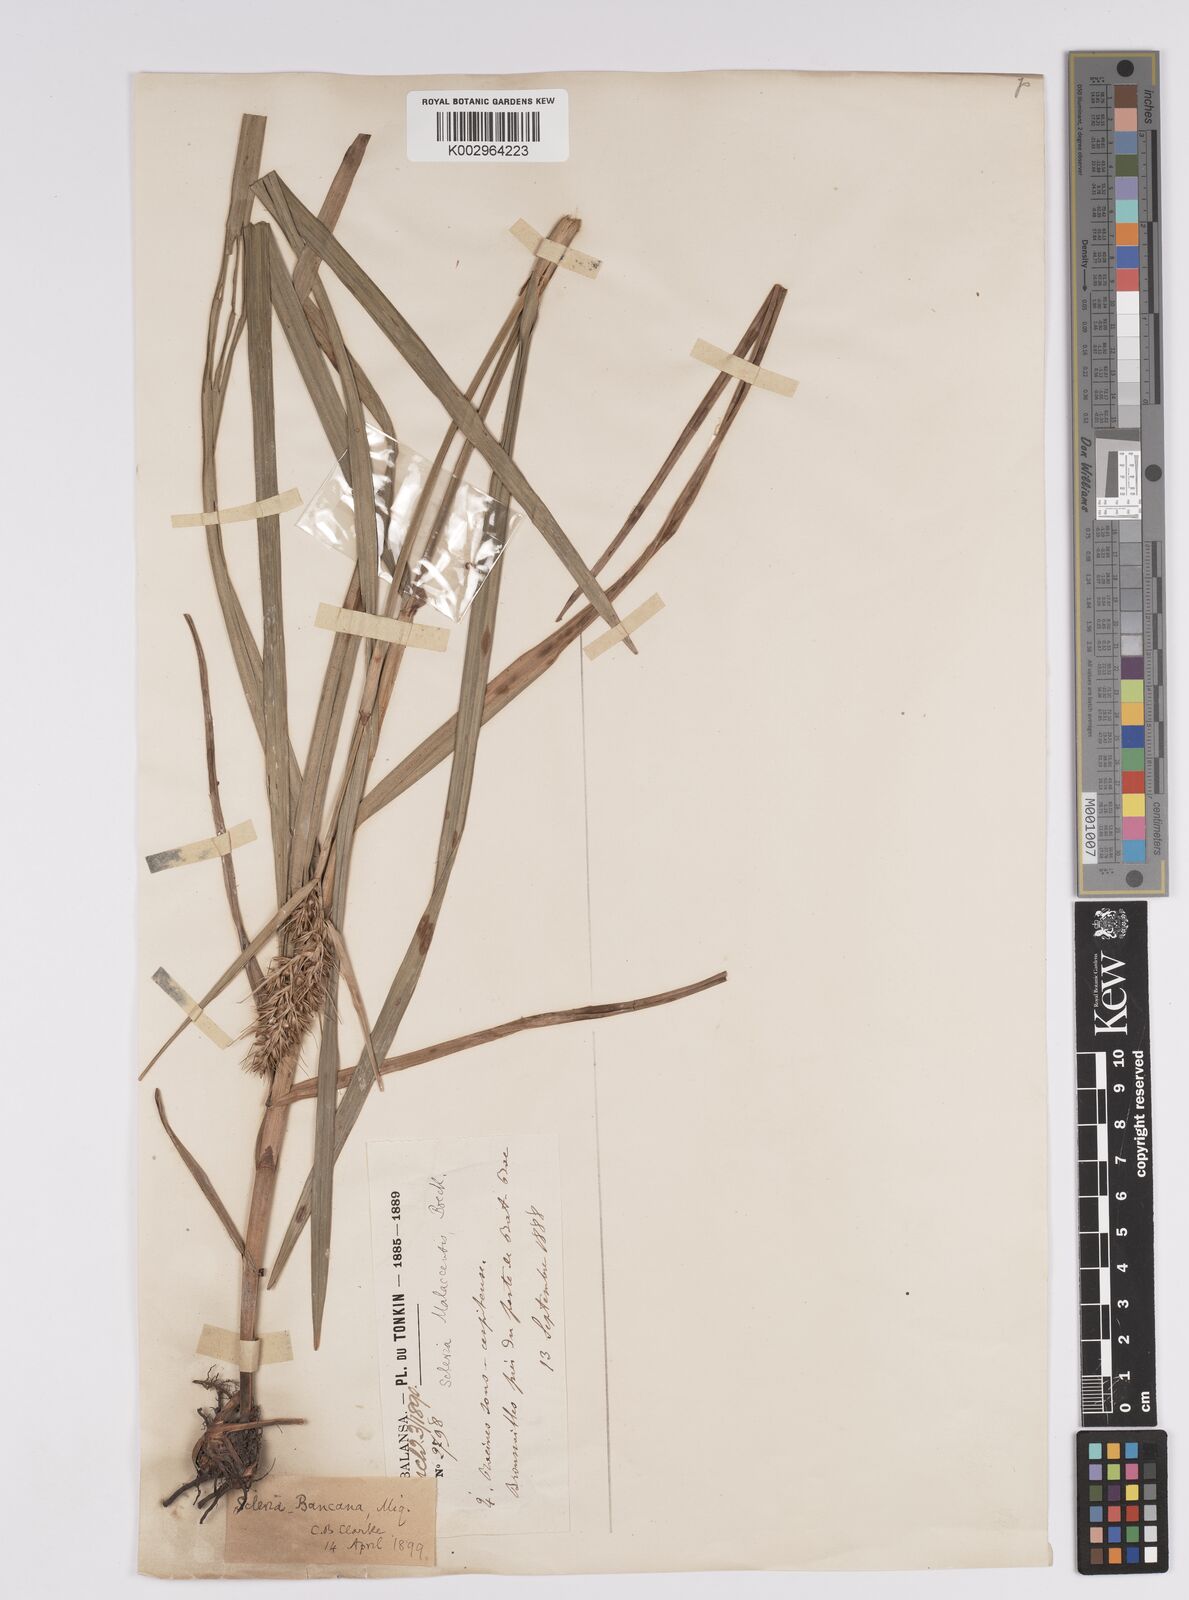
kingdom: Plantae
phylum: Tracheophyta
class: Liliopsida
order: Poales
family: Cyperaceae
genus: Scleria
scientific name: Scleria ciliaris
